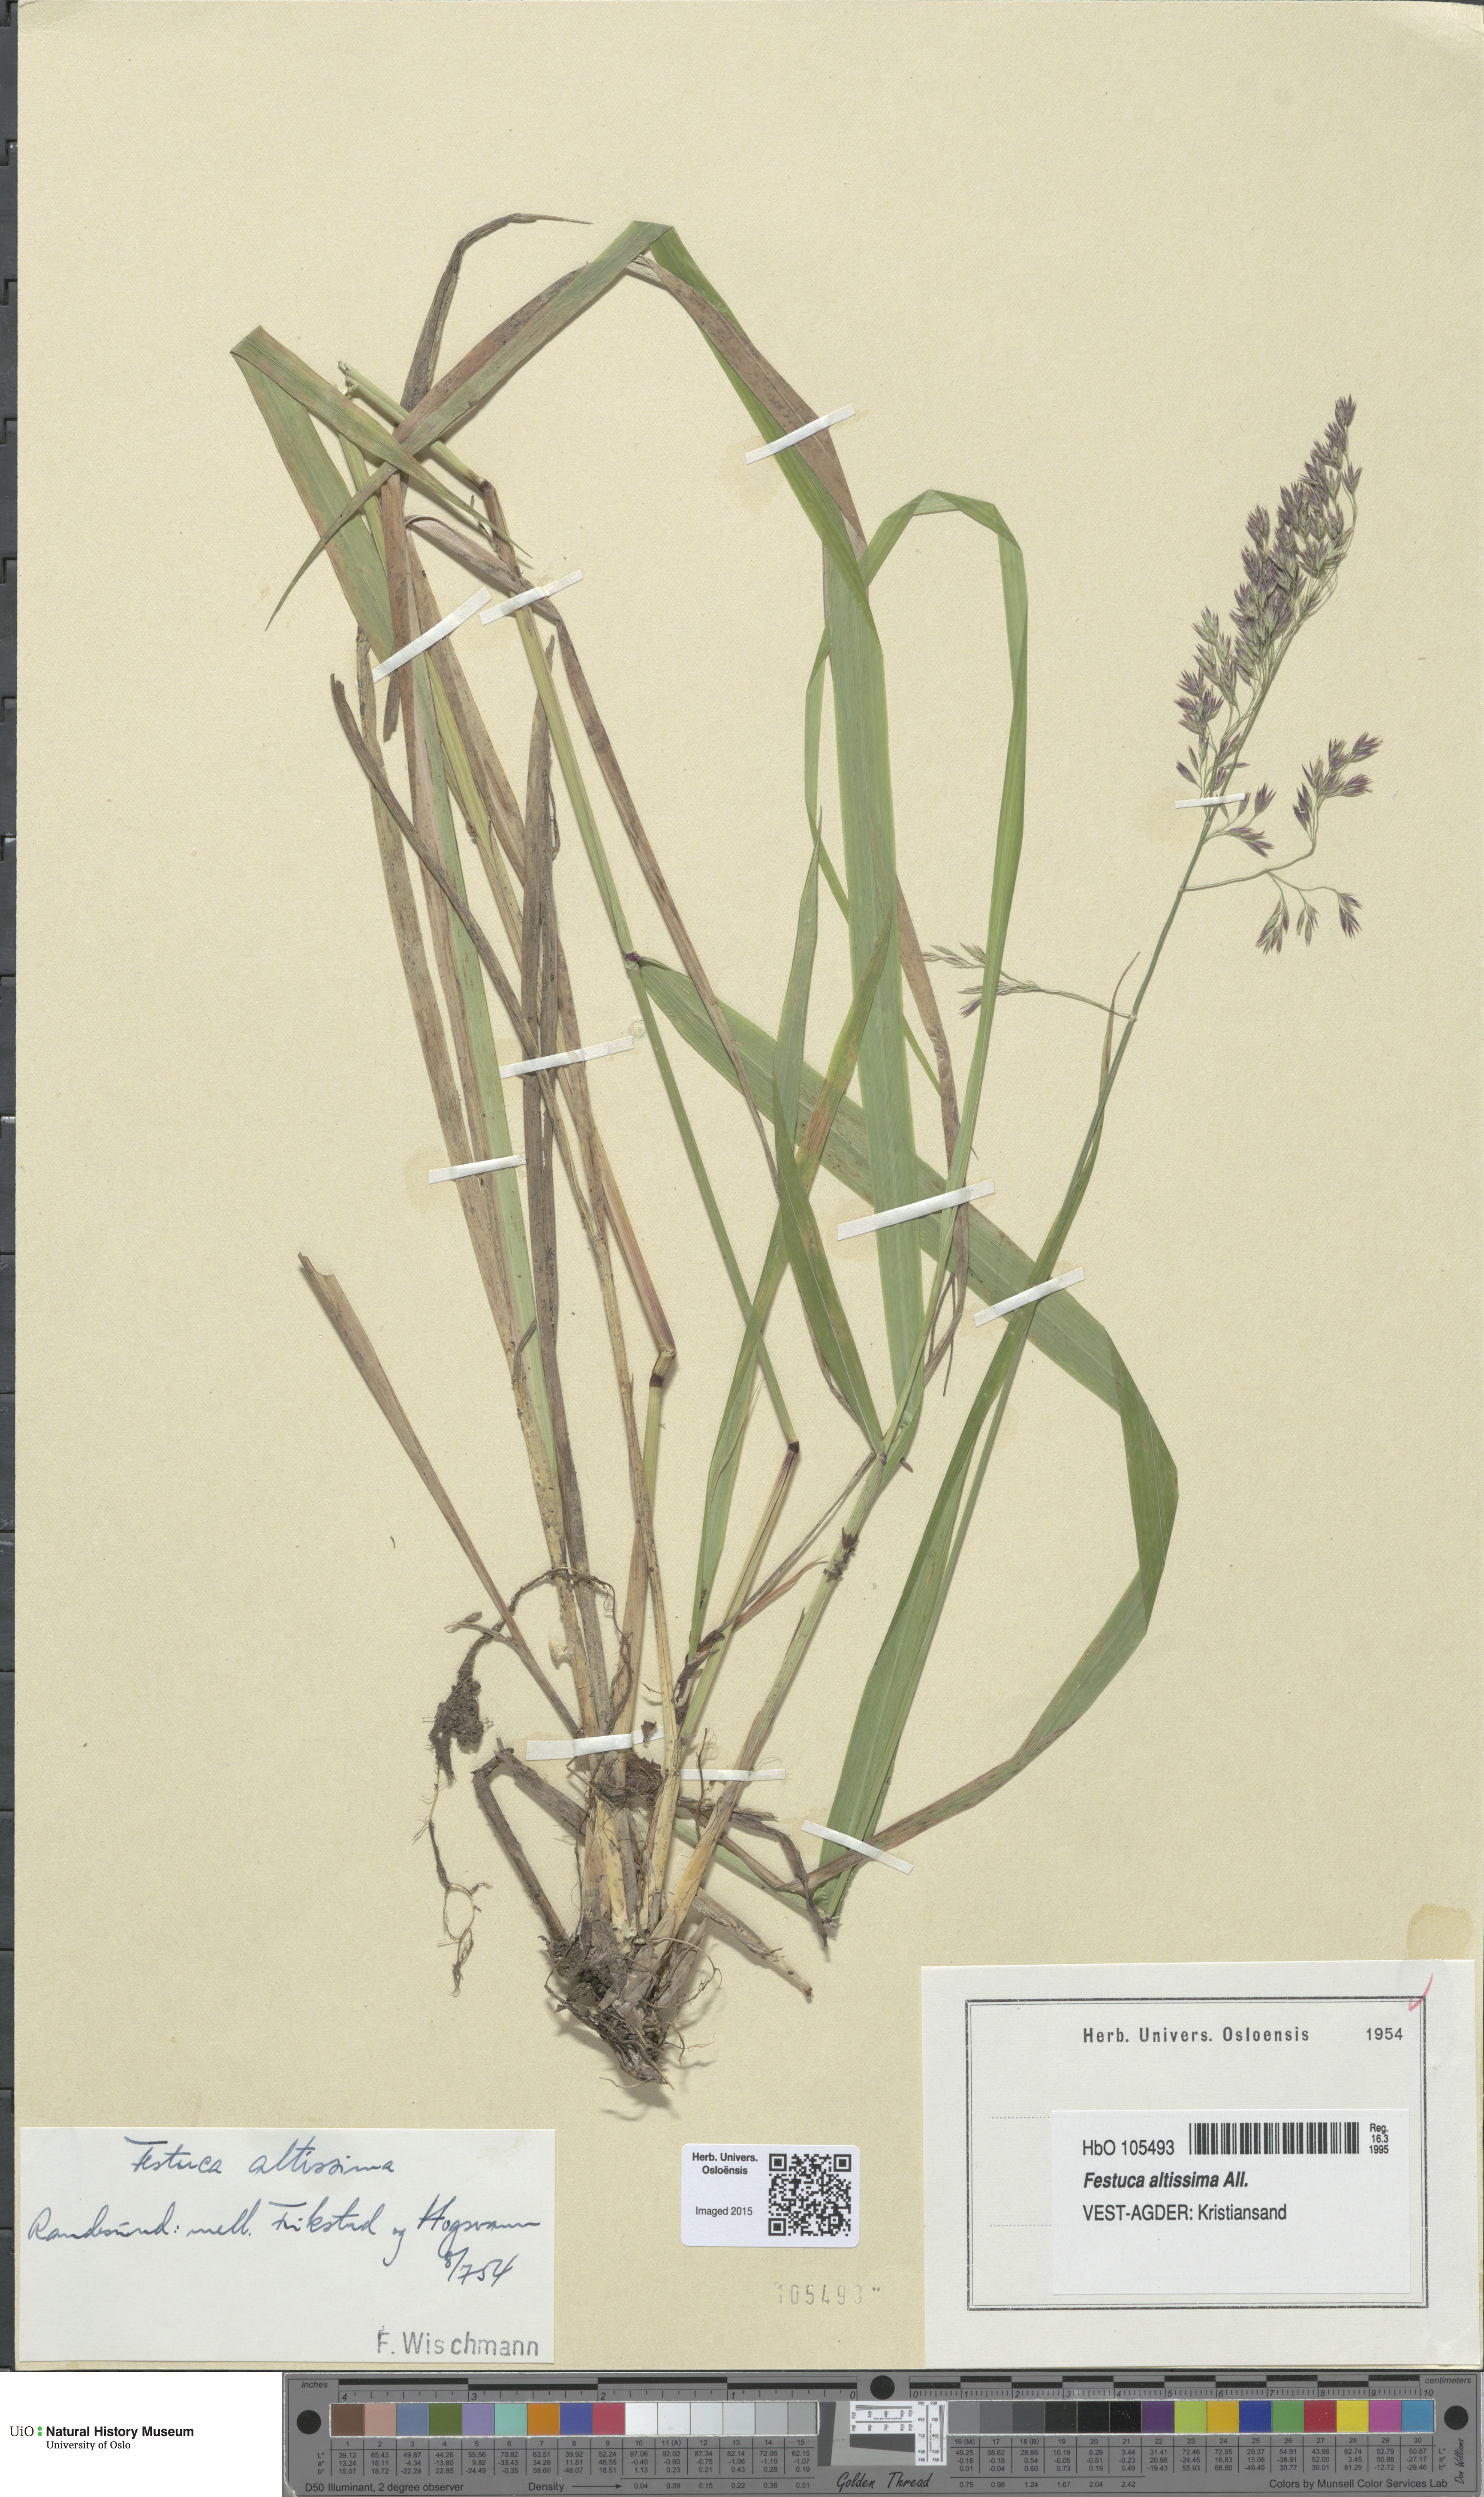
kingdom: Plantae
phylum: Tracheophyta
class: Liliopsida
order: Poales
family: Poaceae
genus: Festuca
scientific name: Festuca altissima
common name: Wood fescue
